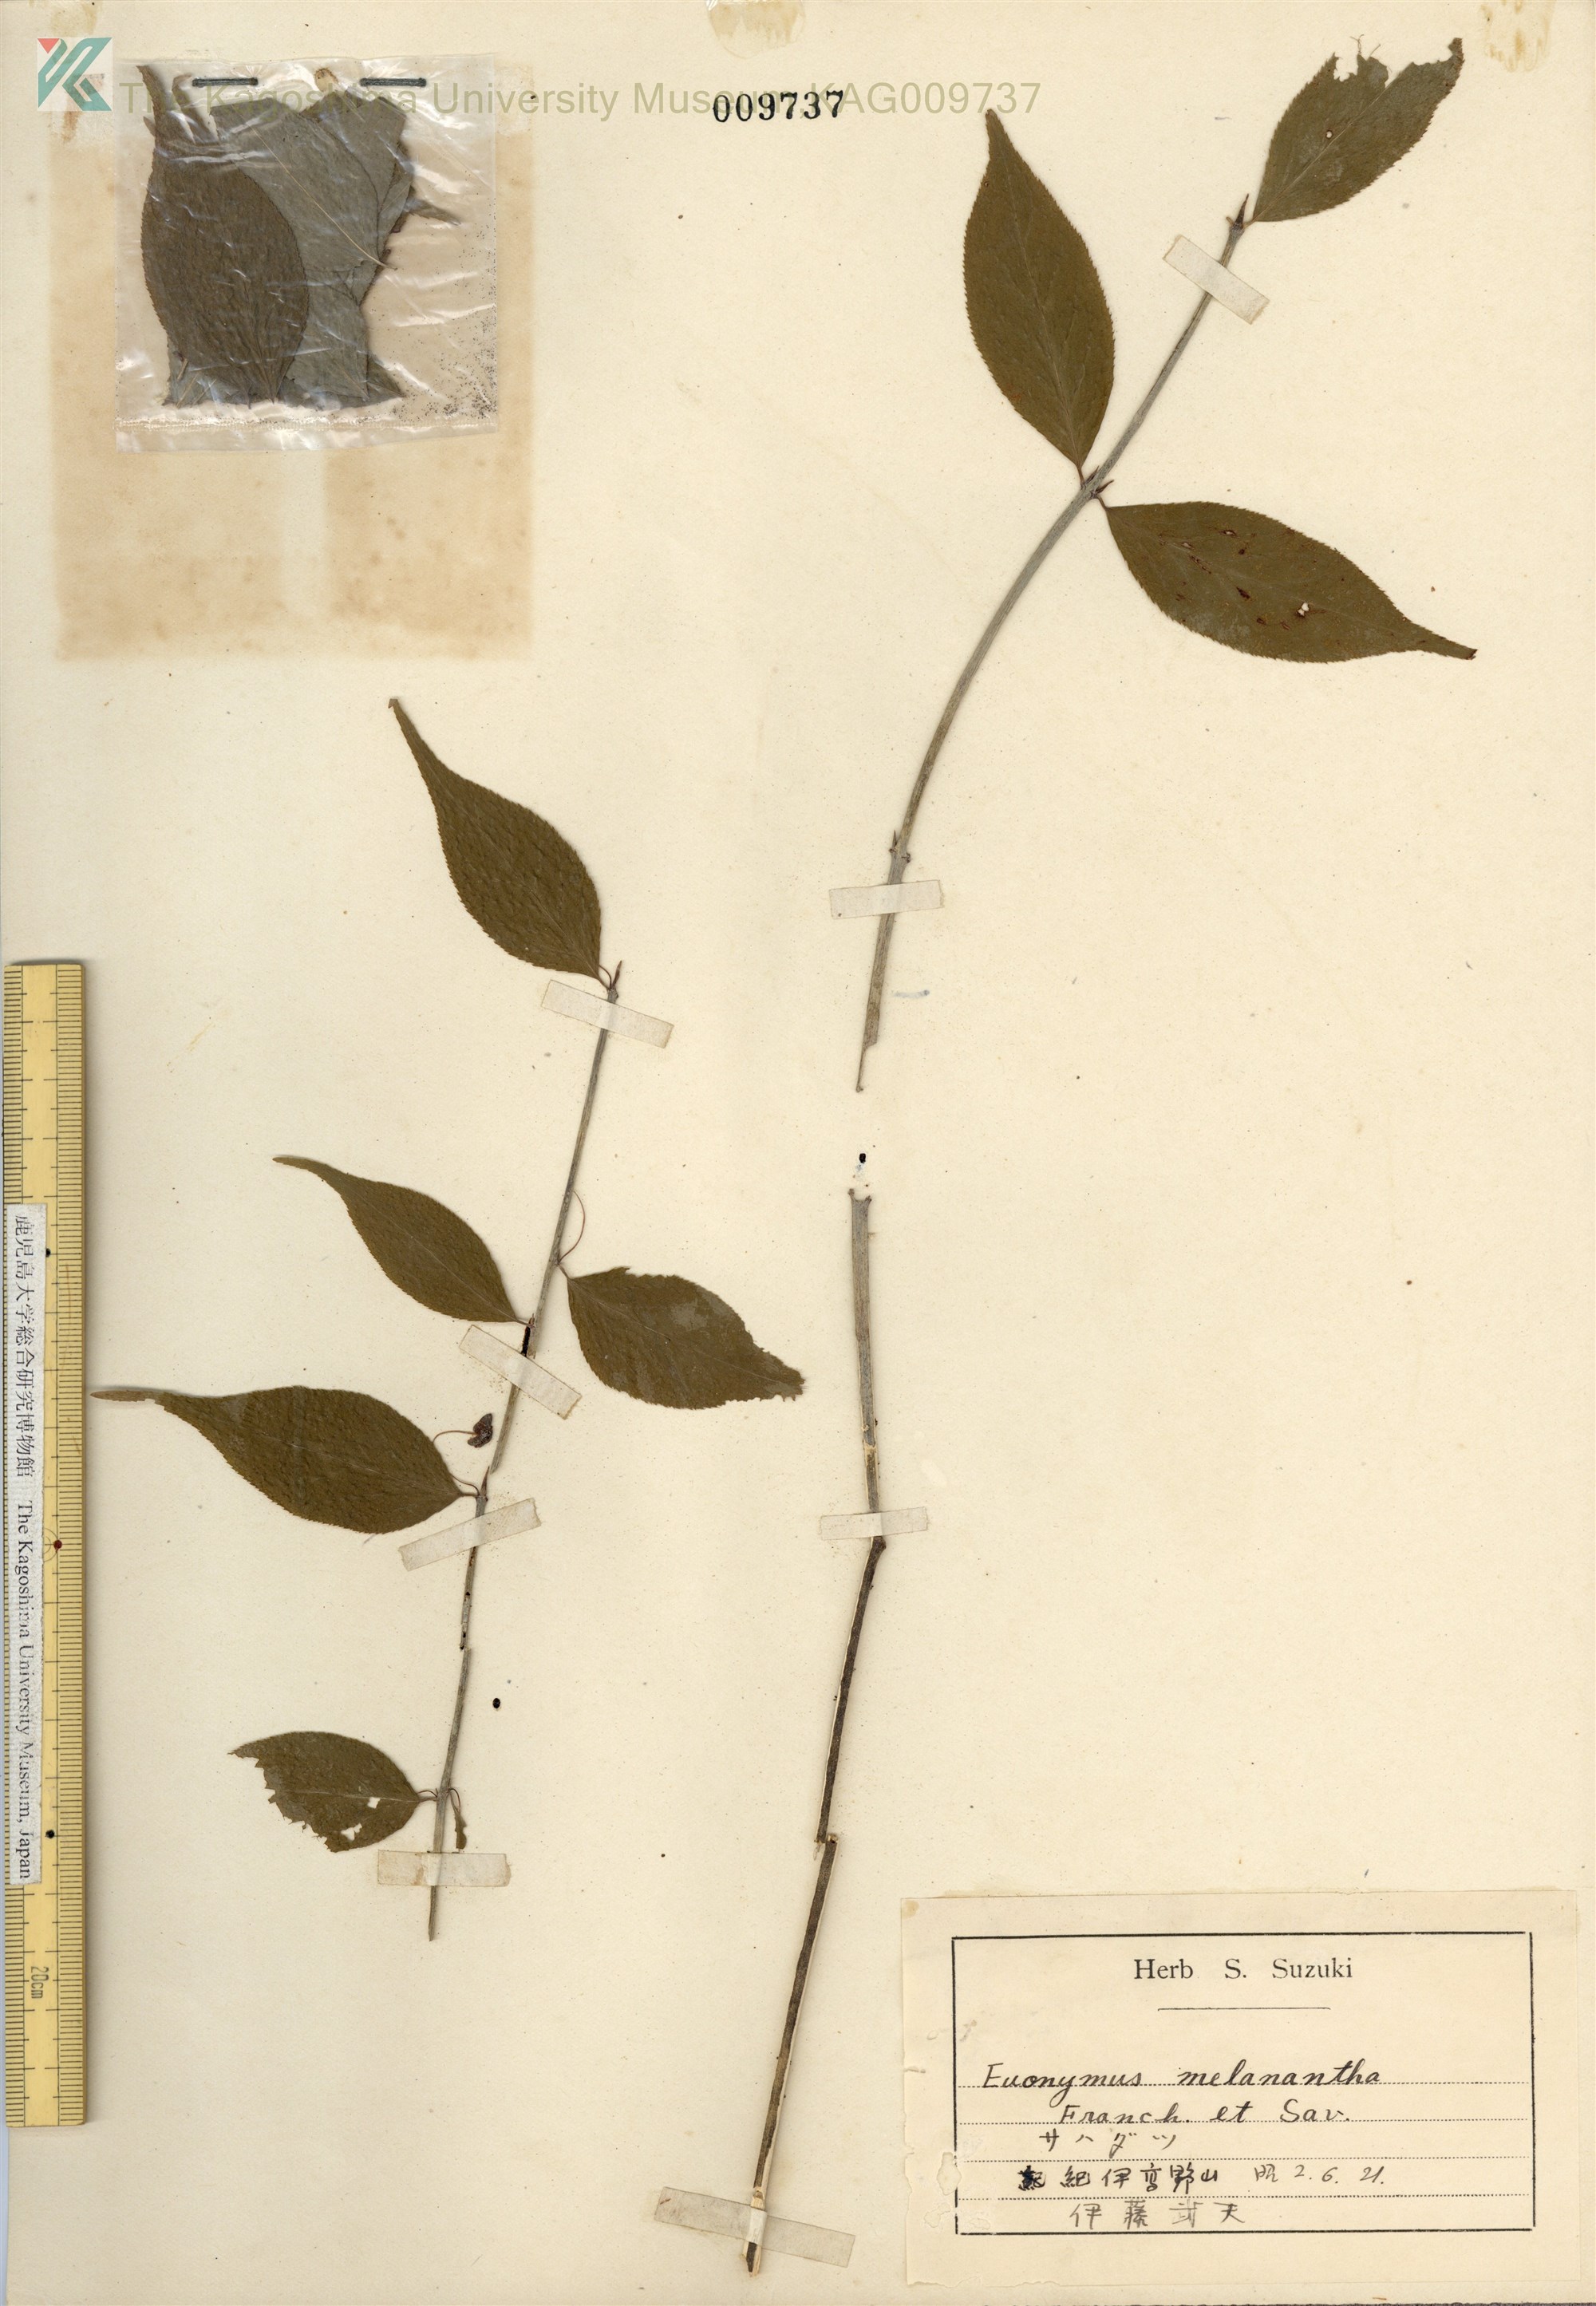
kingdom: Plantae
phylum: Tracheophyta
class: Magnoliopsida
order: Celastrales
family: Celastraceae
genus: Euonymus
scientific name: Euonymus melananthus
